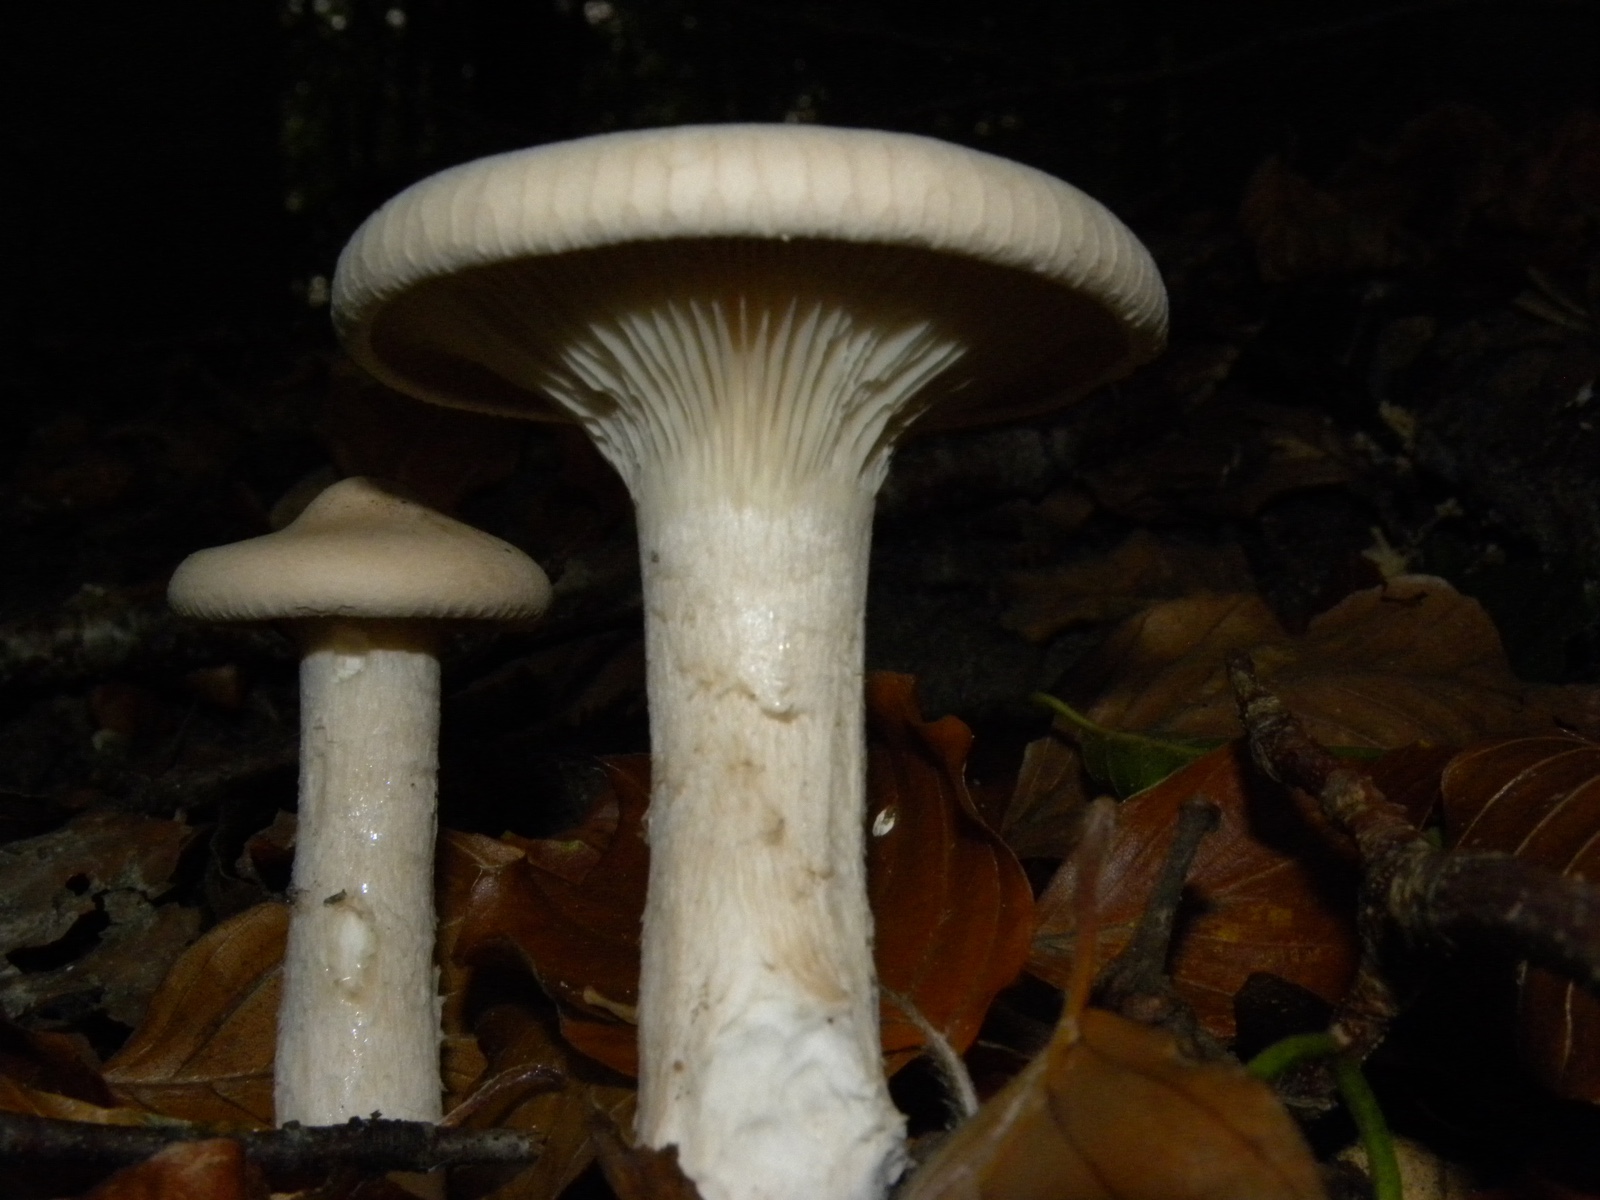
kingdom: Fungi
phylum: Basidiomycota
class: Agaricomycetes
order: Agaricales
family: Tricholomataceae
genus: Infundibulicybe
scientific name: Infundibulicybe geotropa
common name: stor tragthat
